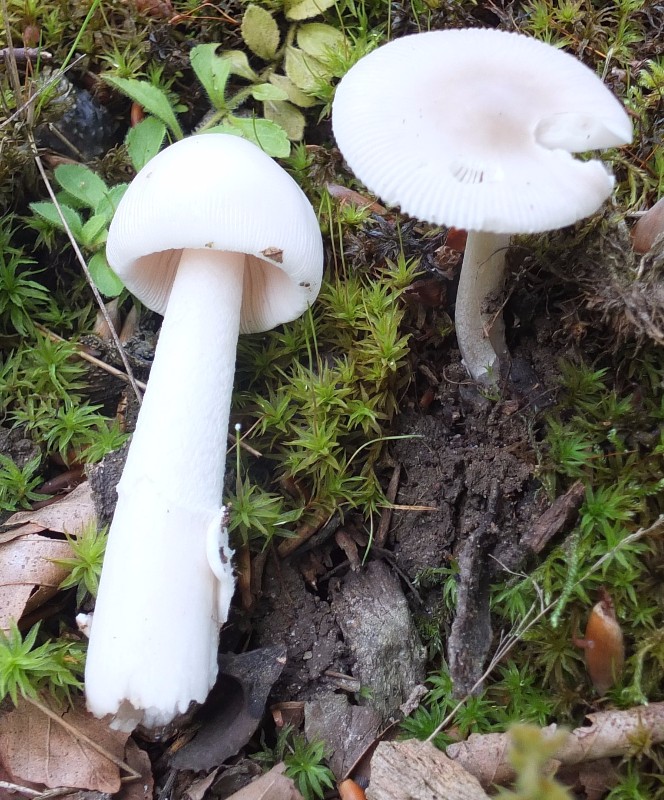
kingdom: Fungi
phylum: Basidiomycota
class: Agaricomycetes
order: Agaricales
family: Amanitaceae
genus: Amanita
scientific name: Amanita vaginata
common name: hvid kam-fluesvamp
